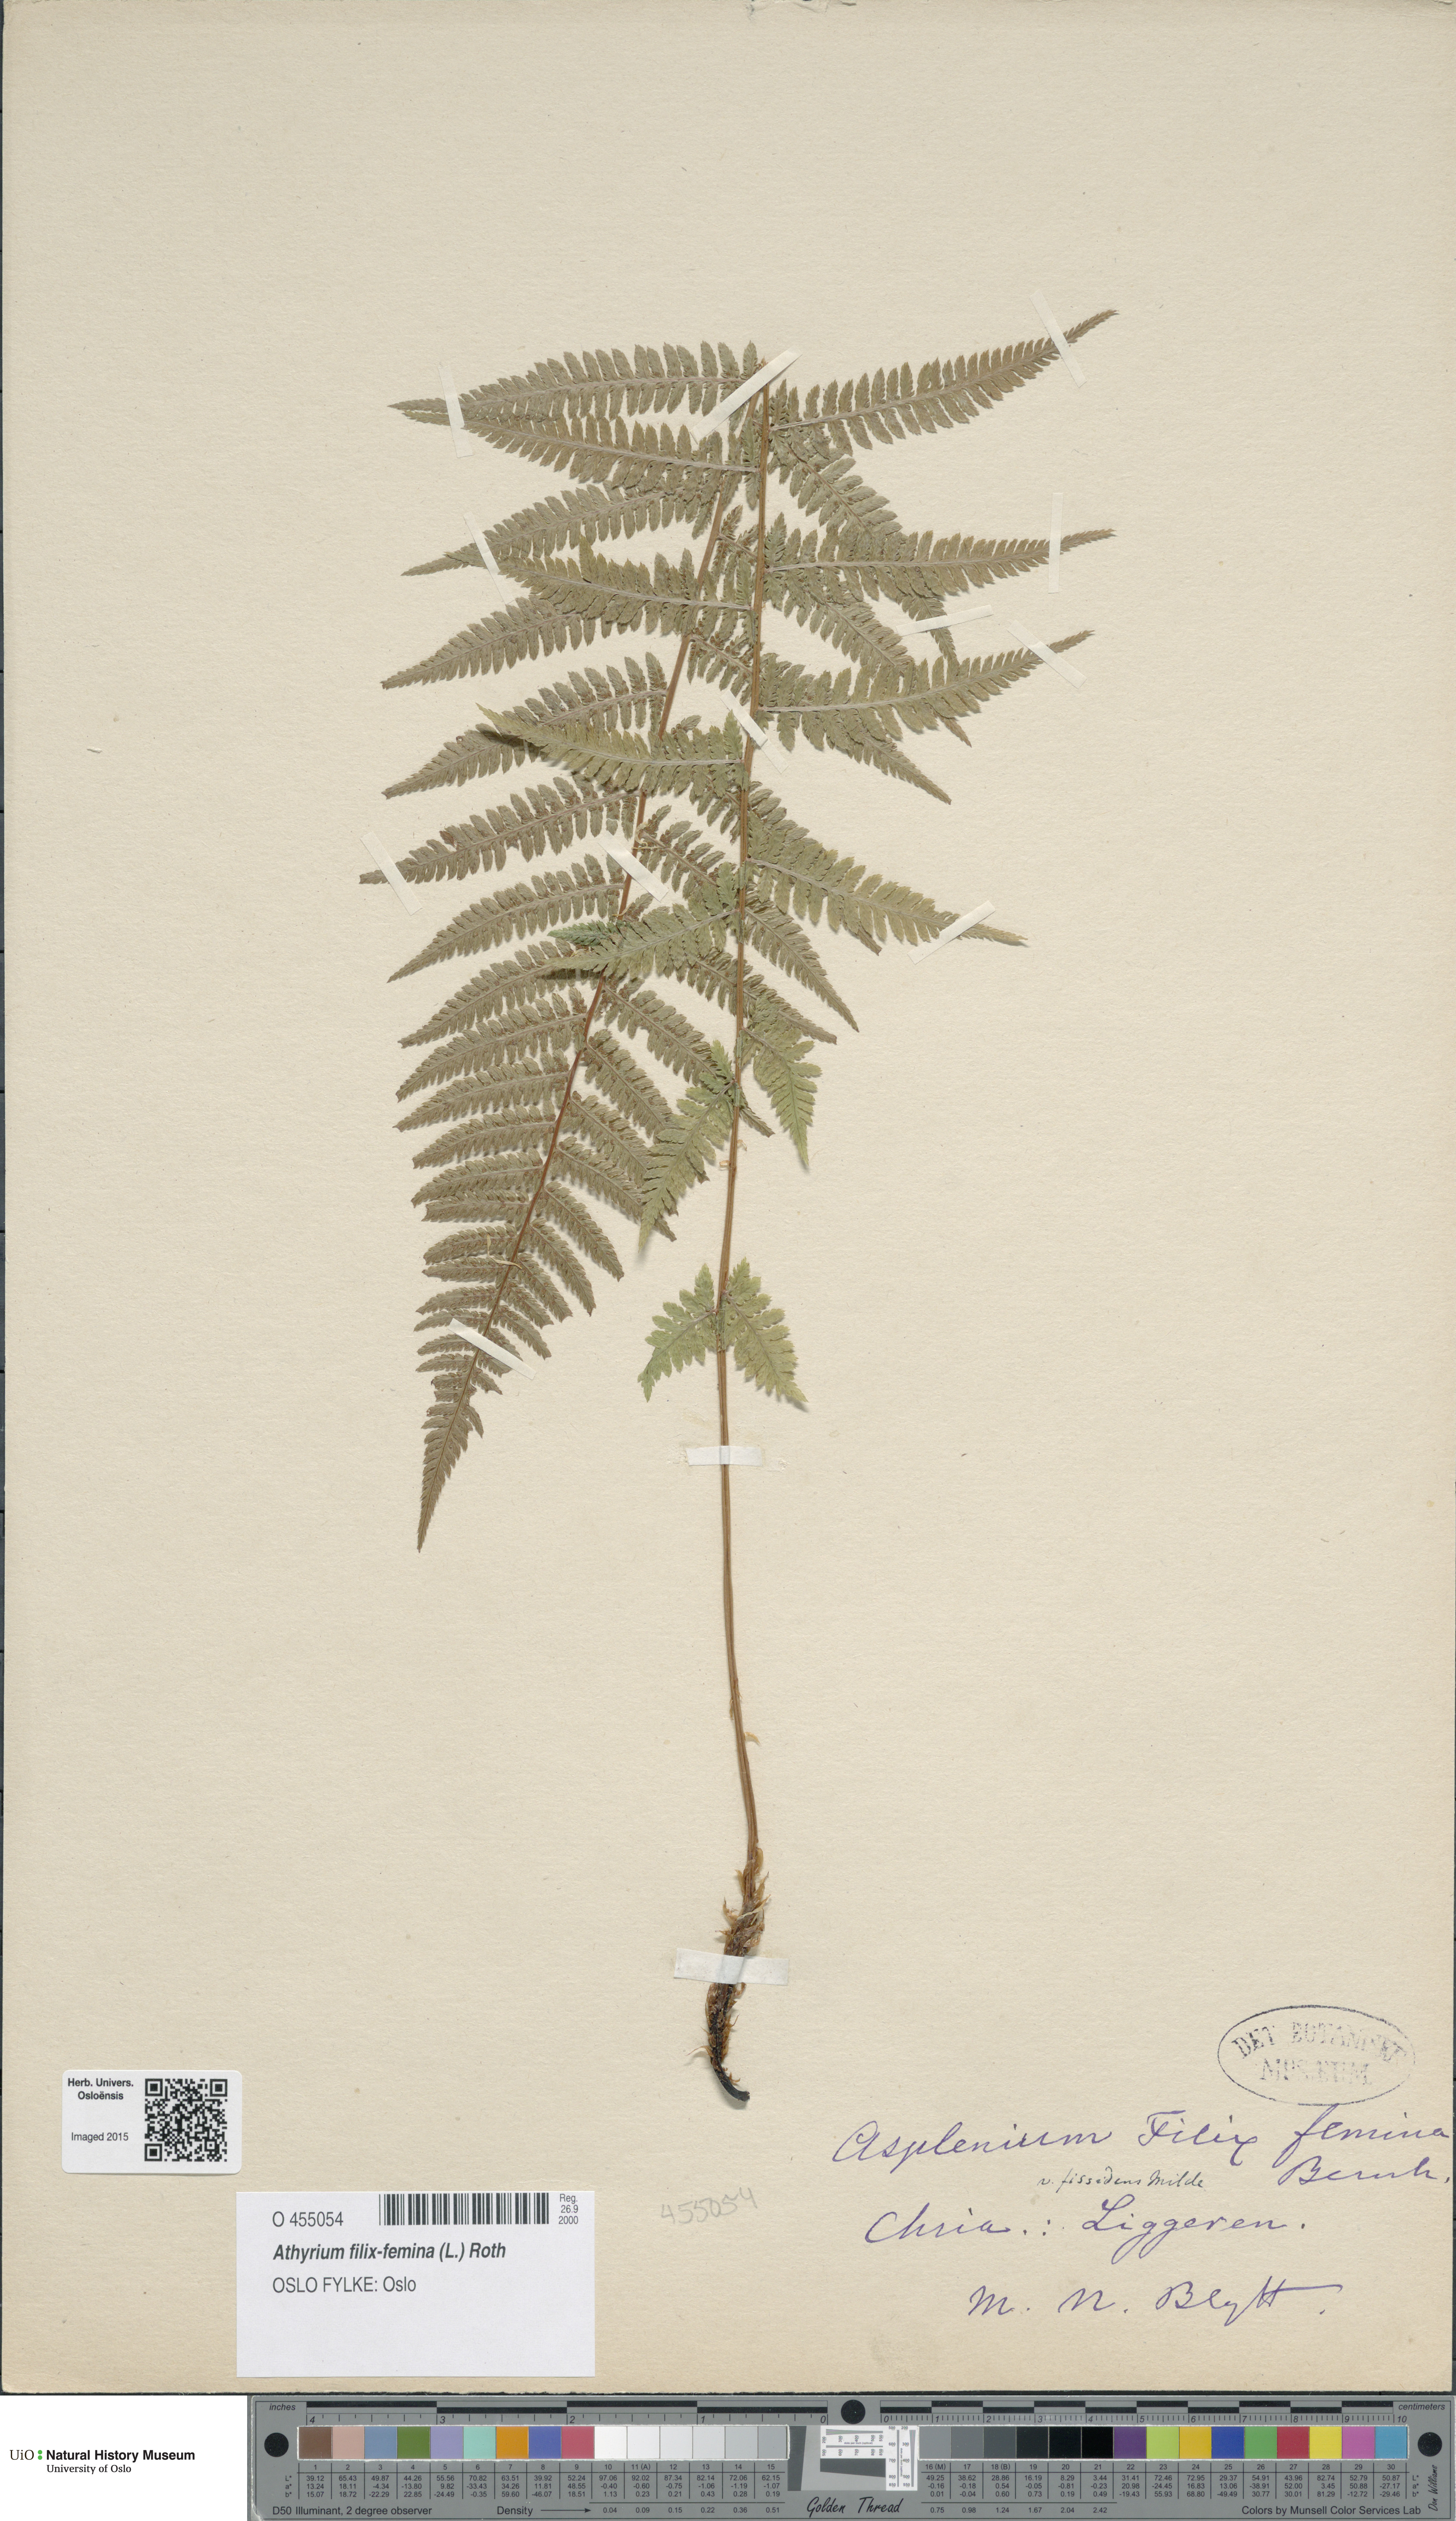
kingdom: Plantae
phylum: Tracheophyta
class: Polypodiopsida
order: Polypodiales
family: Athyriaceae
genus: Athyrium
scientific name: Athyrium filix-femina
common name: Lady fern
